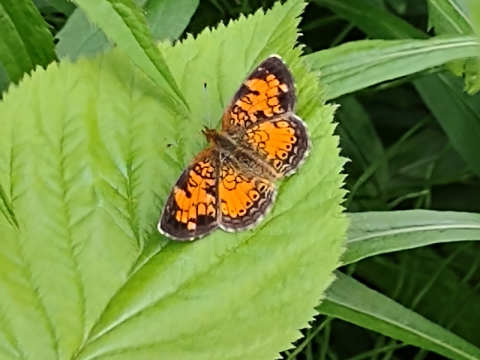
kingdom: Animalia
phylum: Arthropoda
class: Insecta
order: Lepidoptera
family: Nymphalidae
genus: Phyciodes
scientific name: Phyciodes tharos
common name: Northern Crescent
